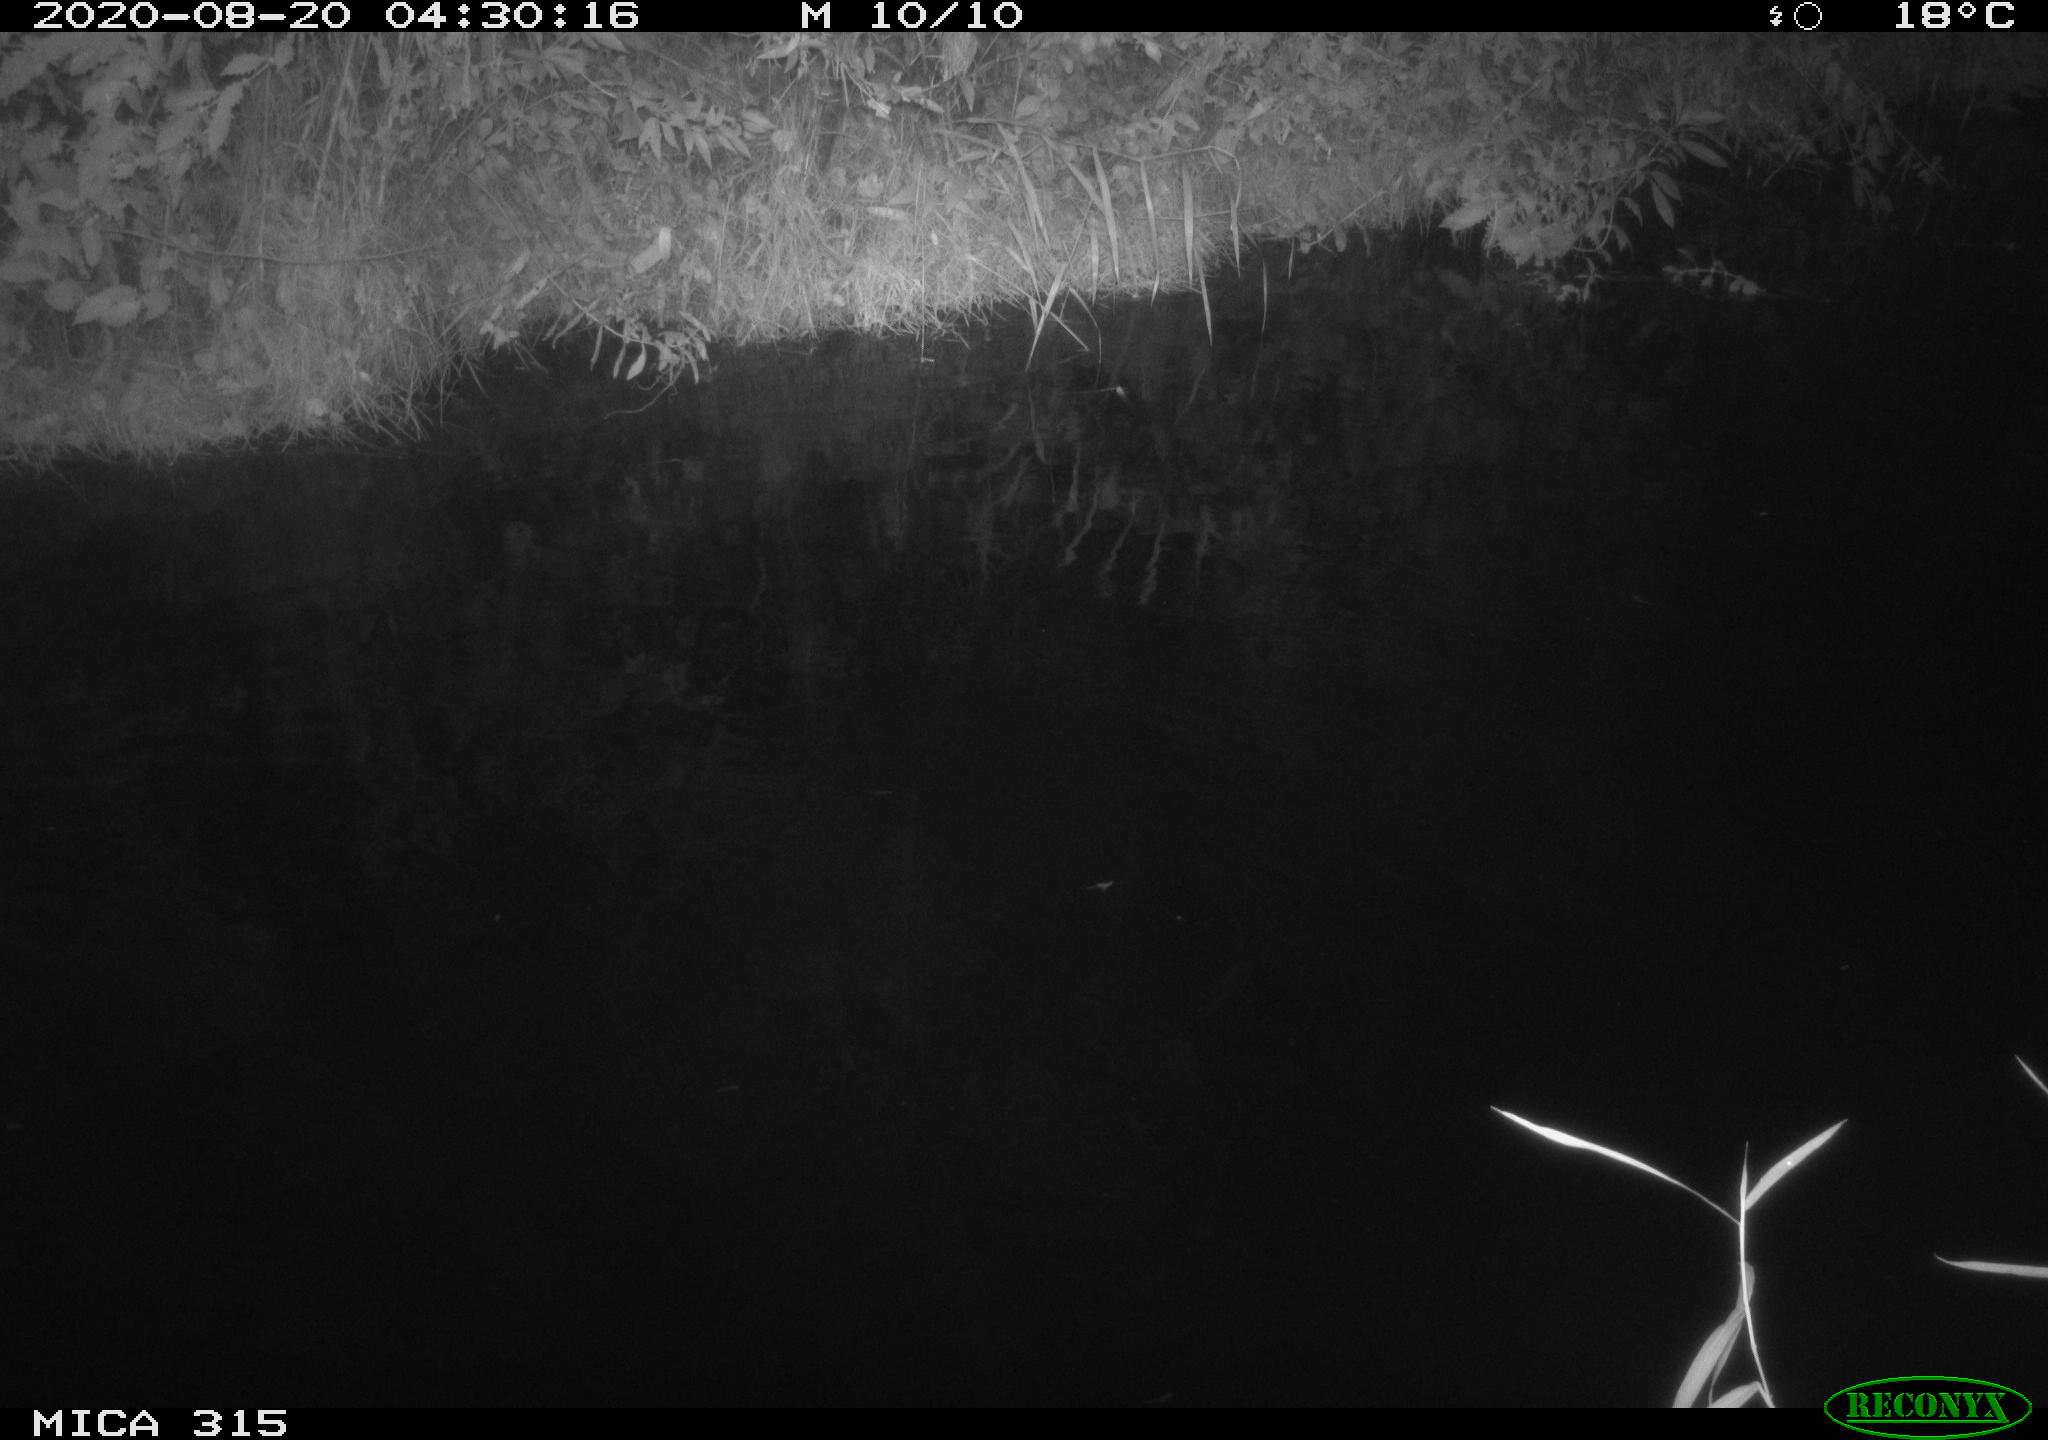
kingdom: Animalia
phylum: Chordata
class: Aves
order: Anseriformes
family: Anatidae
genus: Anas
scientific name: Anas platyrhynchos
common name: Mallard
